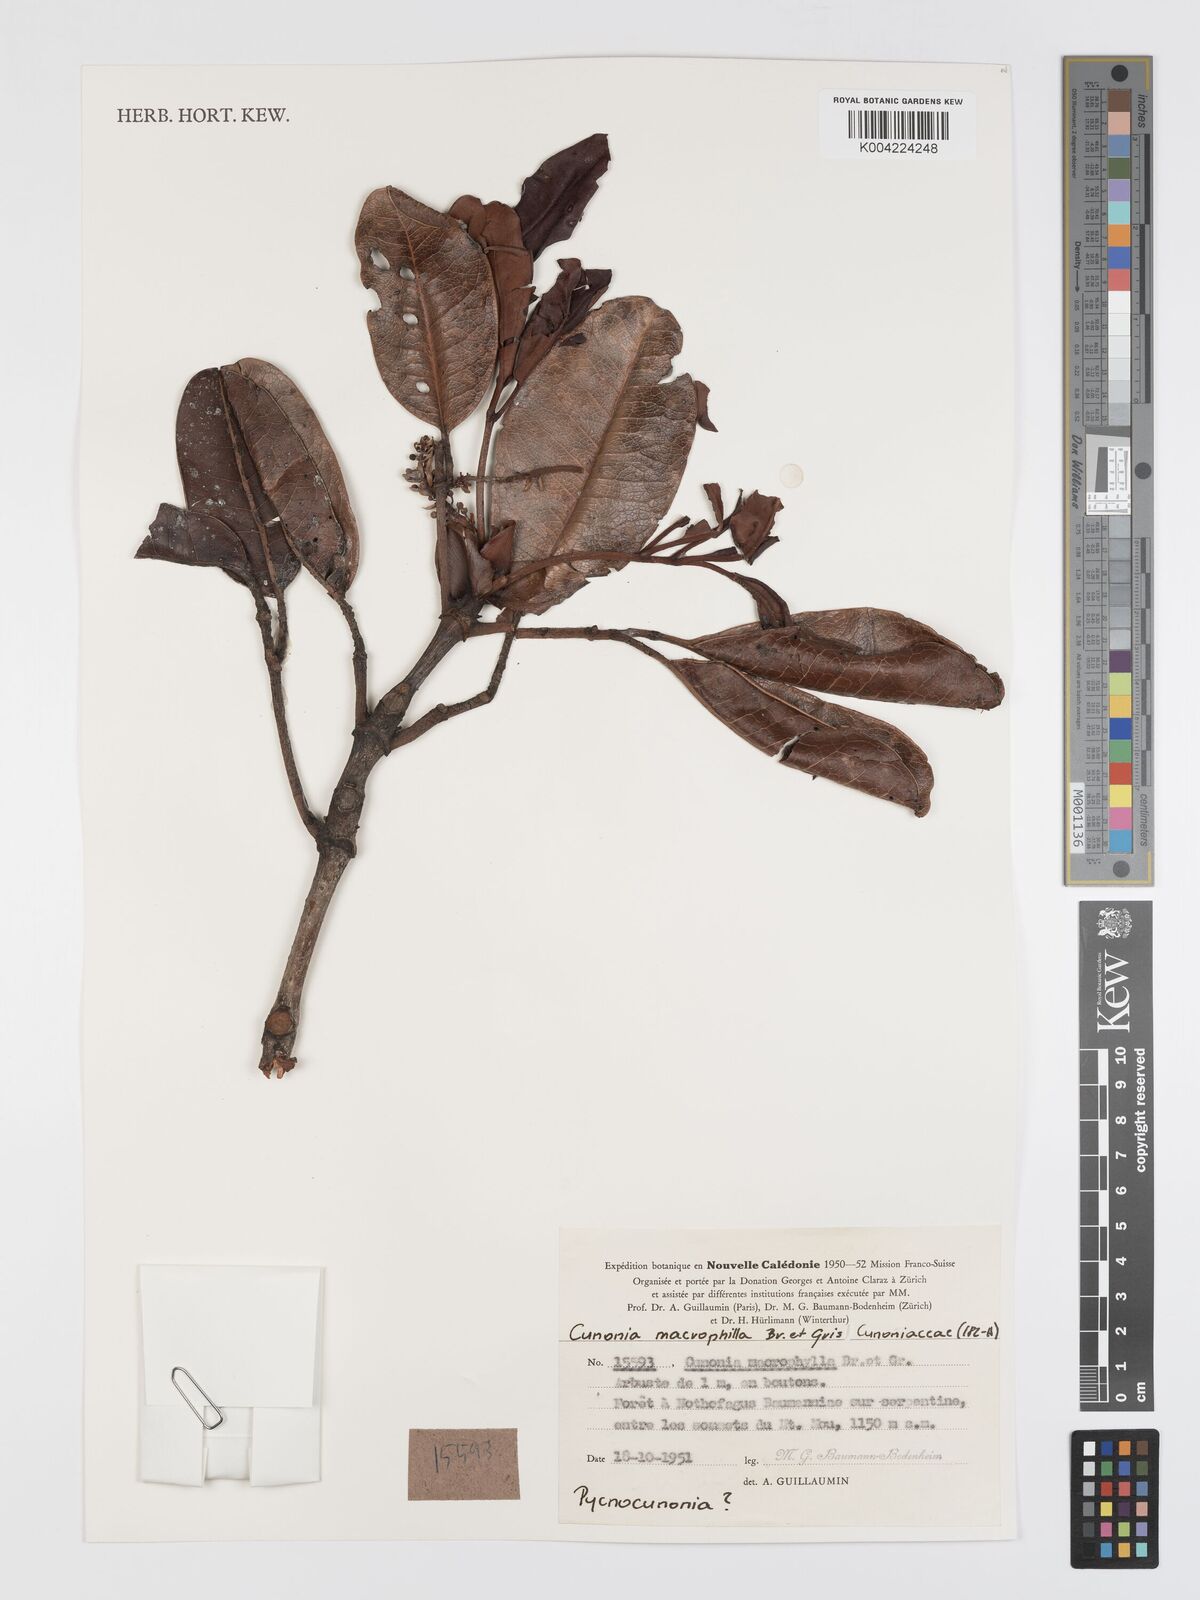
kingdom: Plantae
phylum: Tracheophyta
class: Magnoliopsida
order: Oxalidales
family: Cunoniaceae
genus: Cunonia
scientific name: Cunonia macrophylla
